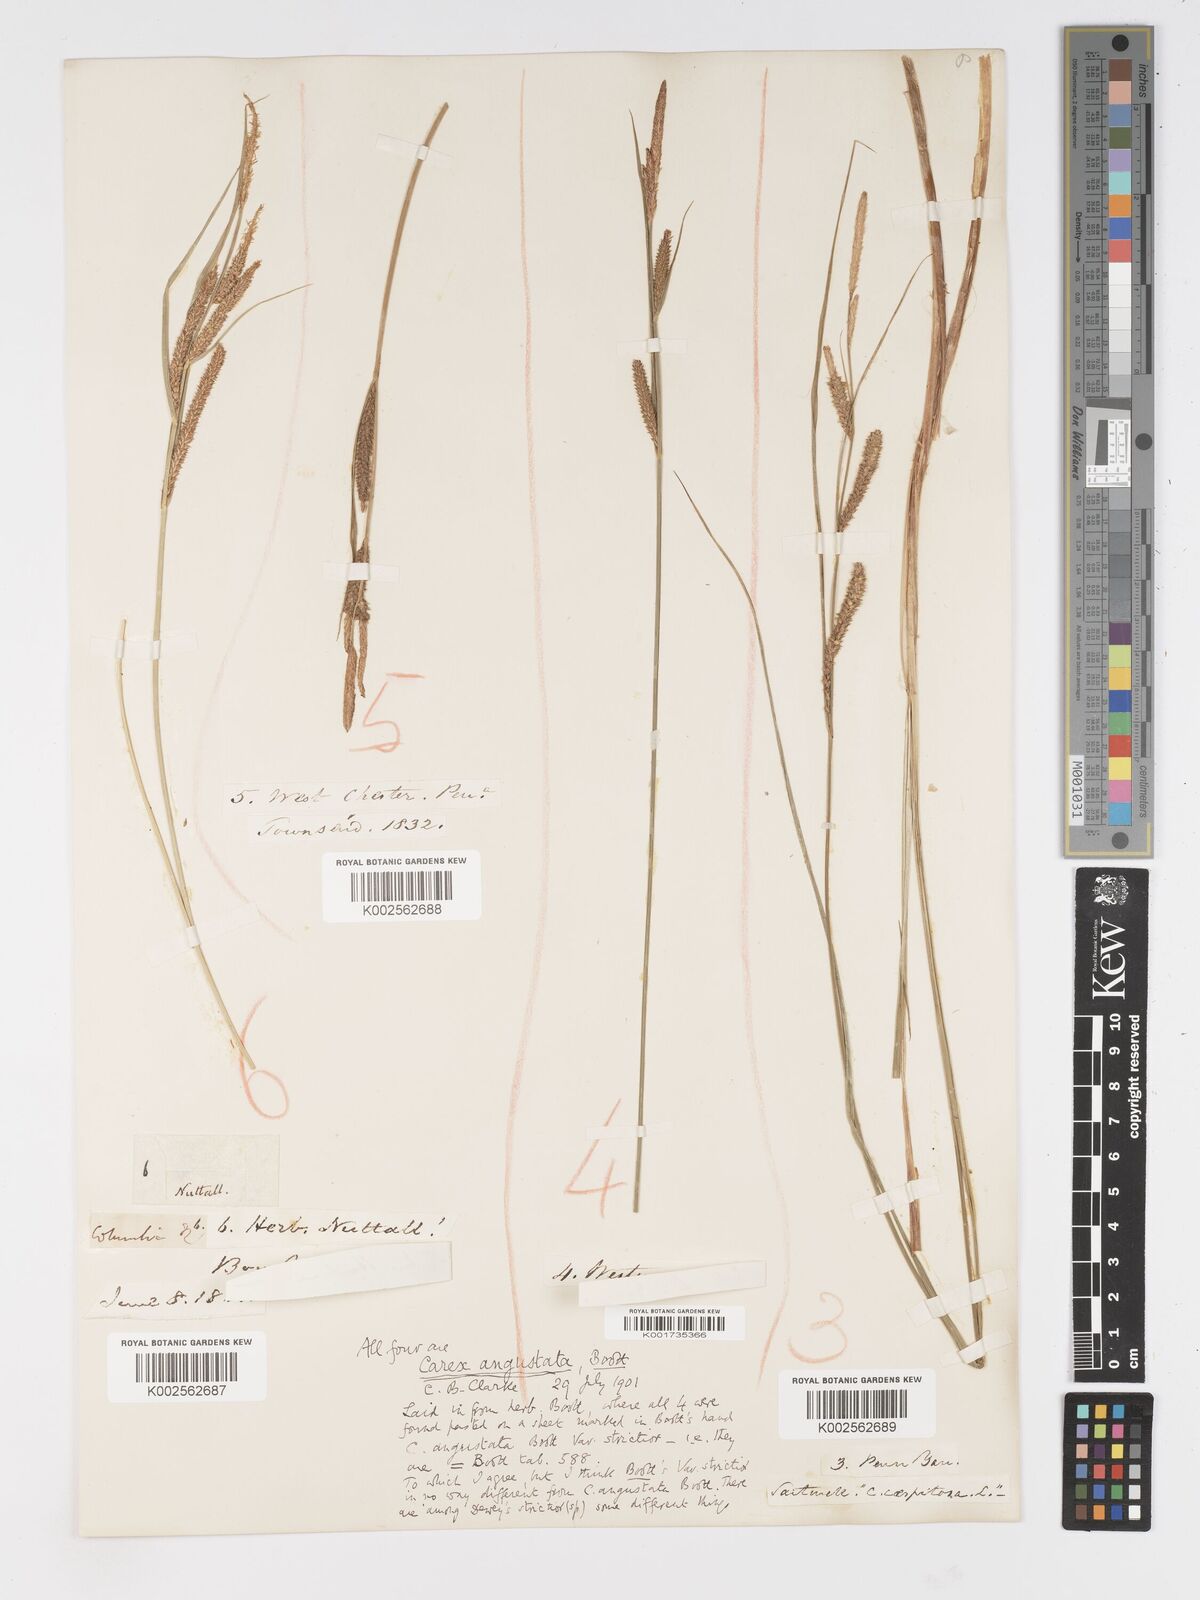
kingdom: Plantae
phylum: Tracheophyta
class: Liliopsida
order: Poales
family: Cyperaceae
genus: Carex
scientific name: Carex stricta
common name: Hummock sedge
